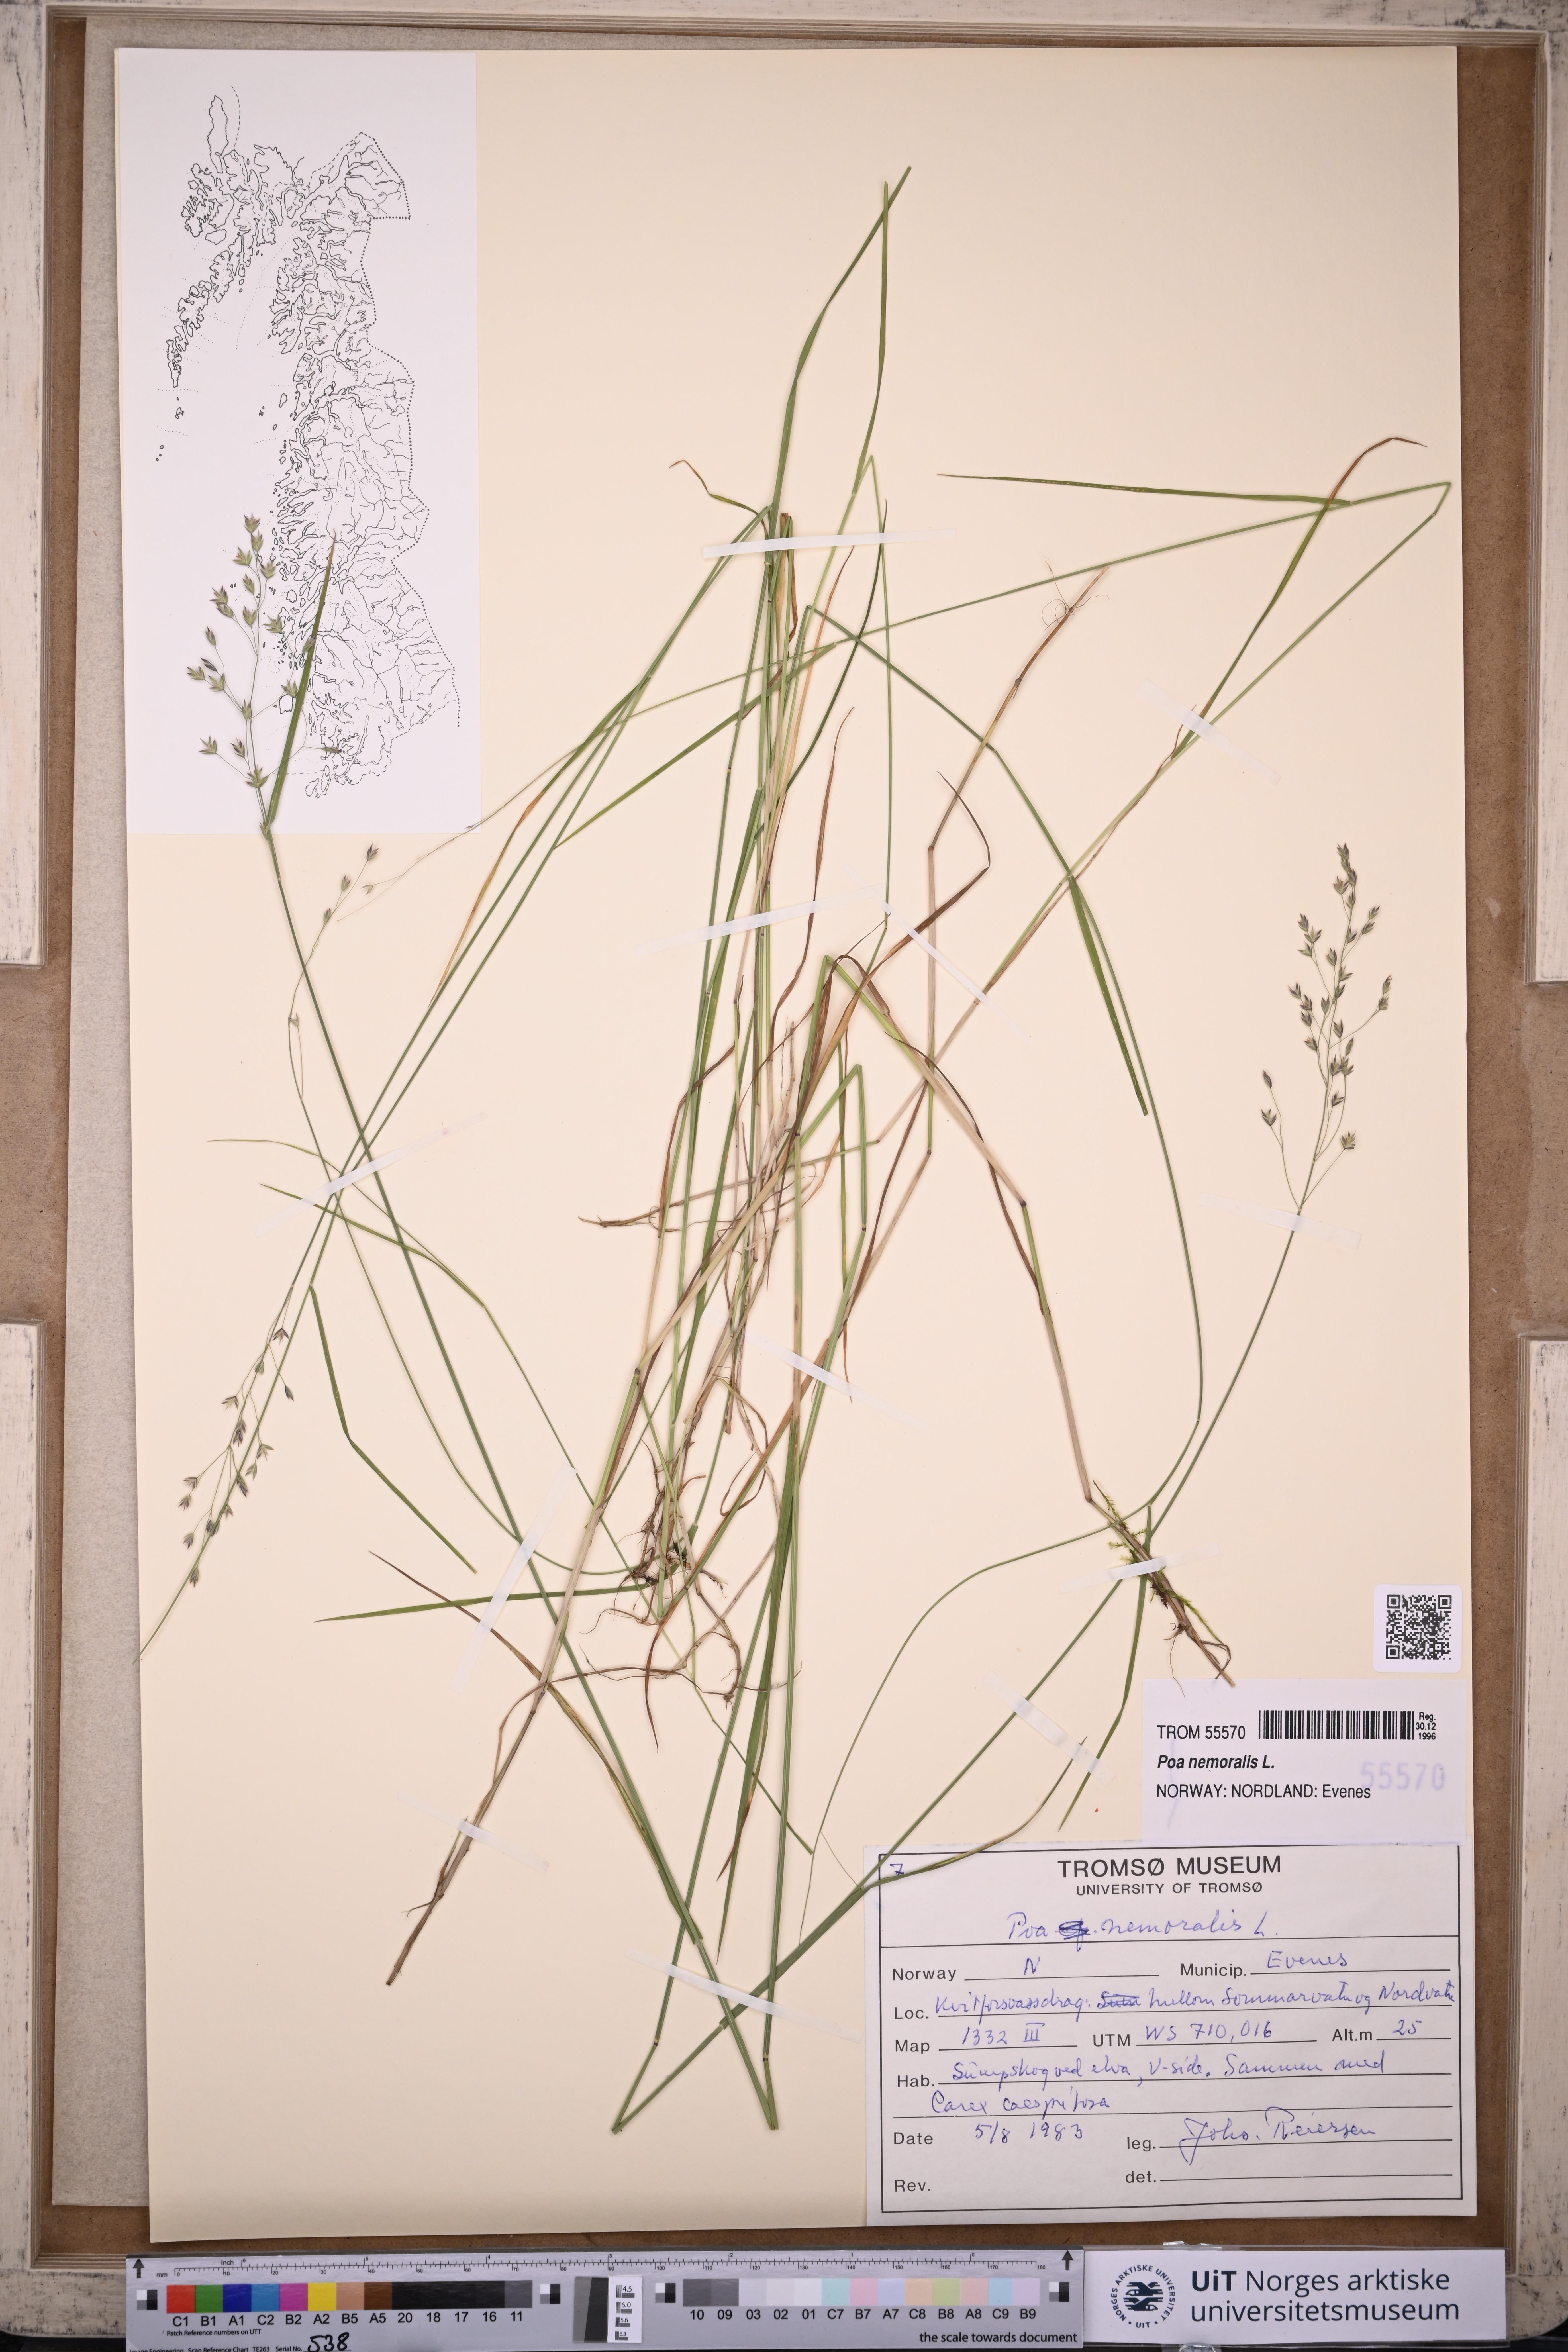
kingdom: Plantae
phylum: Tracheophyta
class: Liliopsida
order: Poales
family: Poaceae
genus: Poa
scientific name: Poa nemoralis
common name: Wood bluegrass
